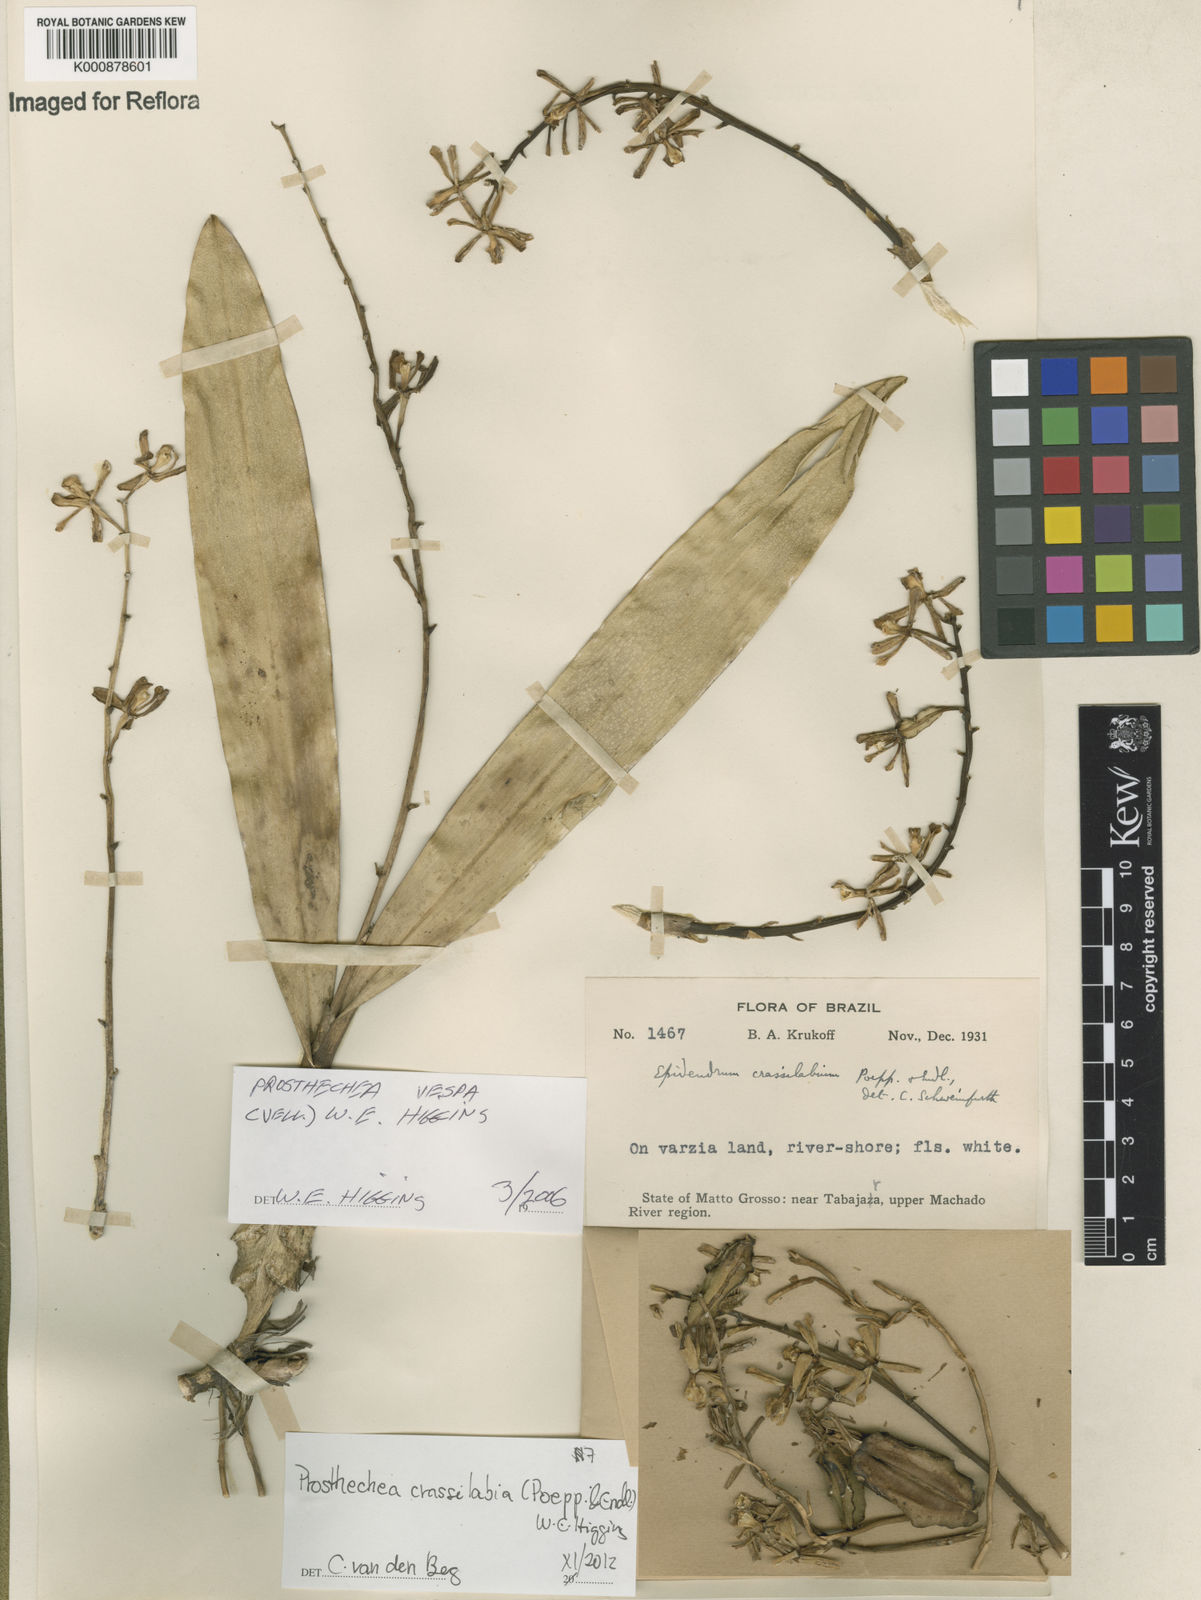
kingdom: Plantae
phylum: Tracheophyta
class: Liliopsida
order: Asparagales
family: Orchidaceae
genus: Prosthechea
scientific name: Prosthechea
